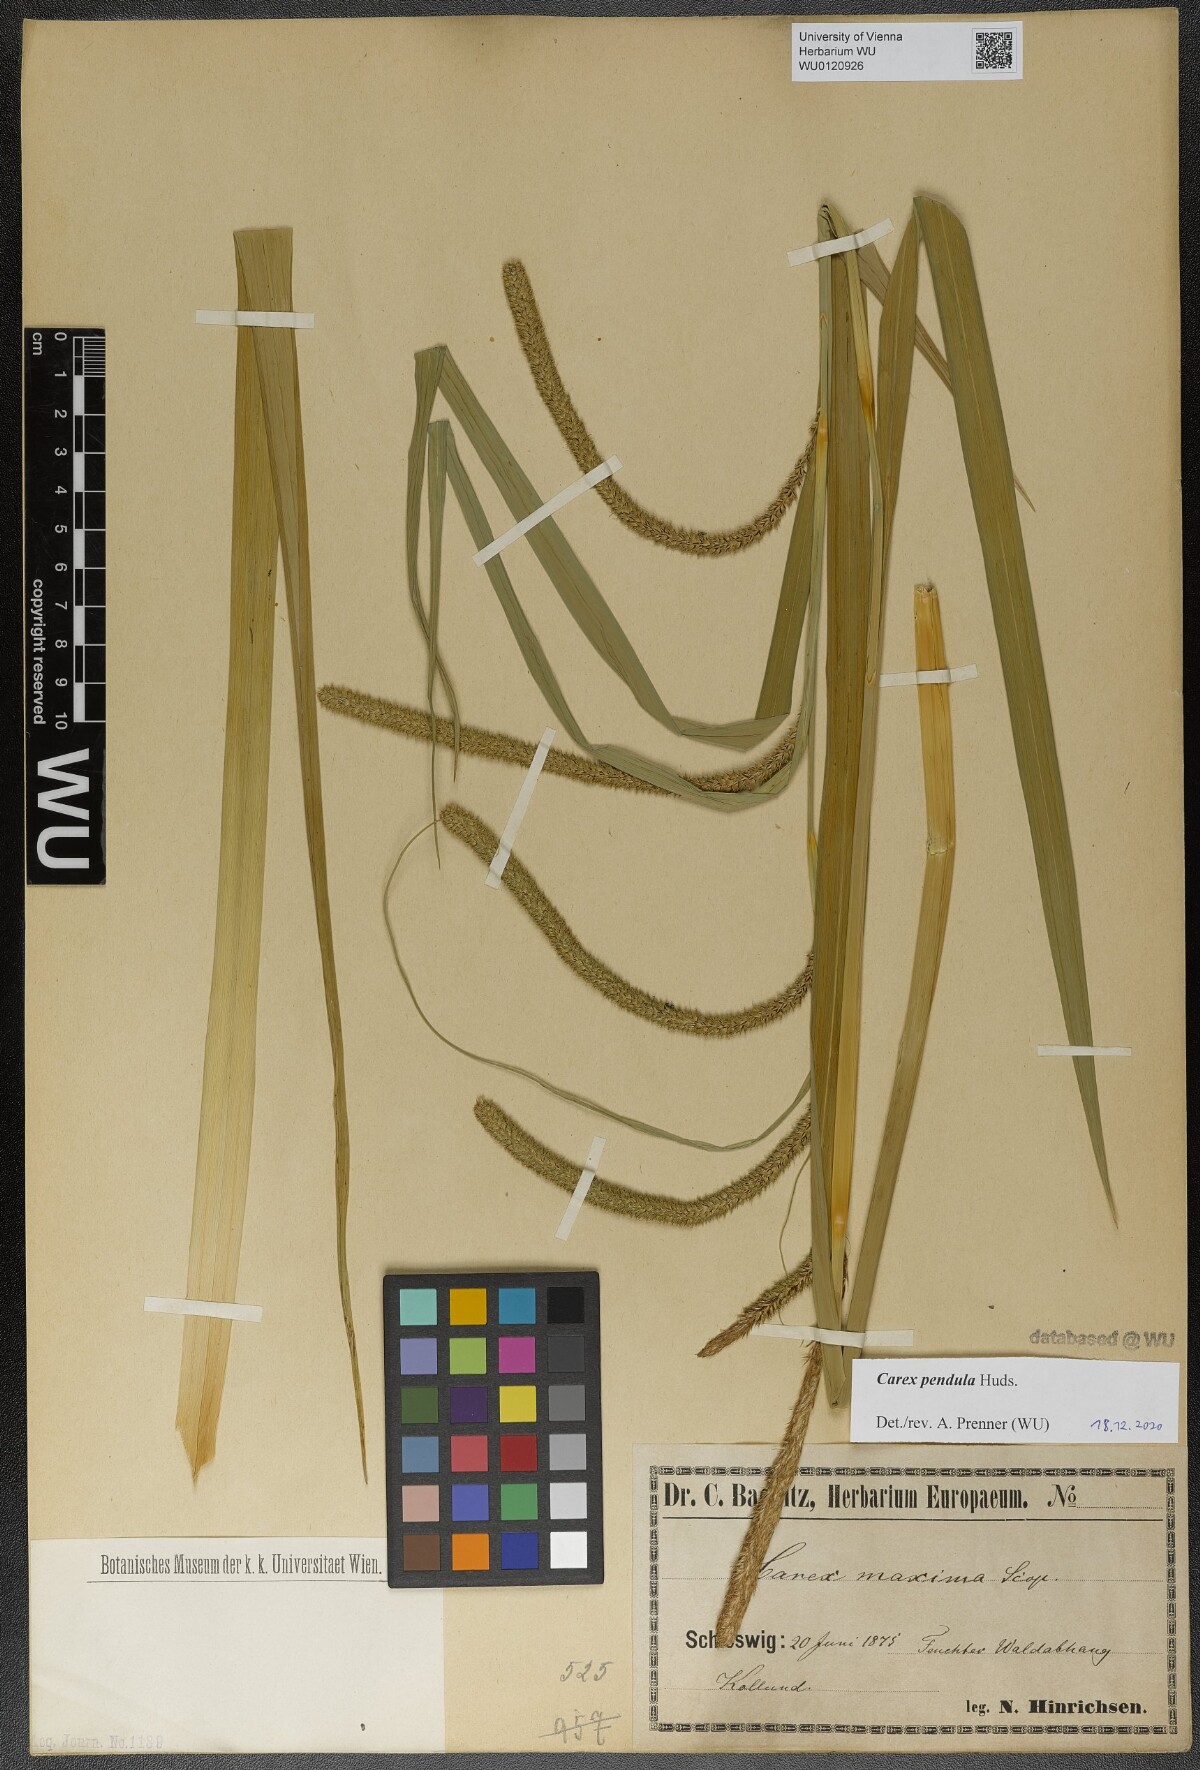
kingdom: Plantae
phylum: Tracheophyta
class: Liliopsida
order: Poales
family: Cyperaceae
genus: Carex
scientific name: Carex pendula
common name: Pendulous sedge
